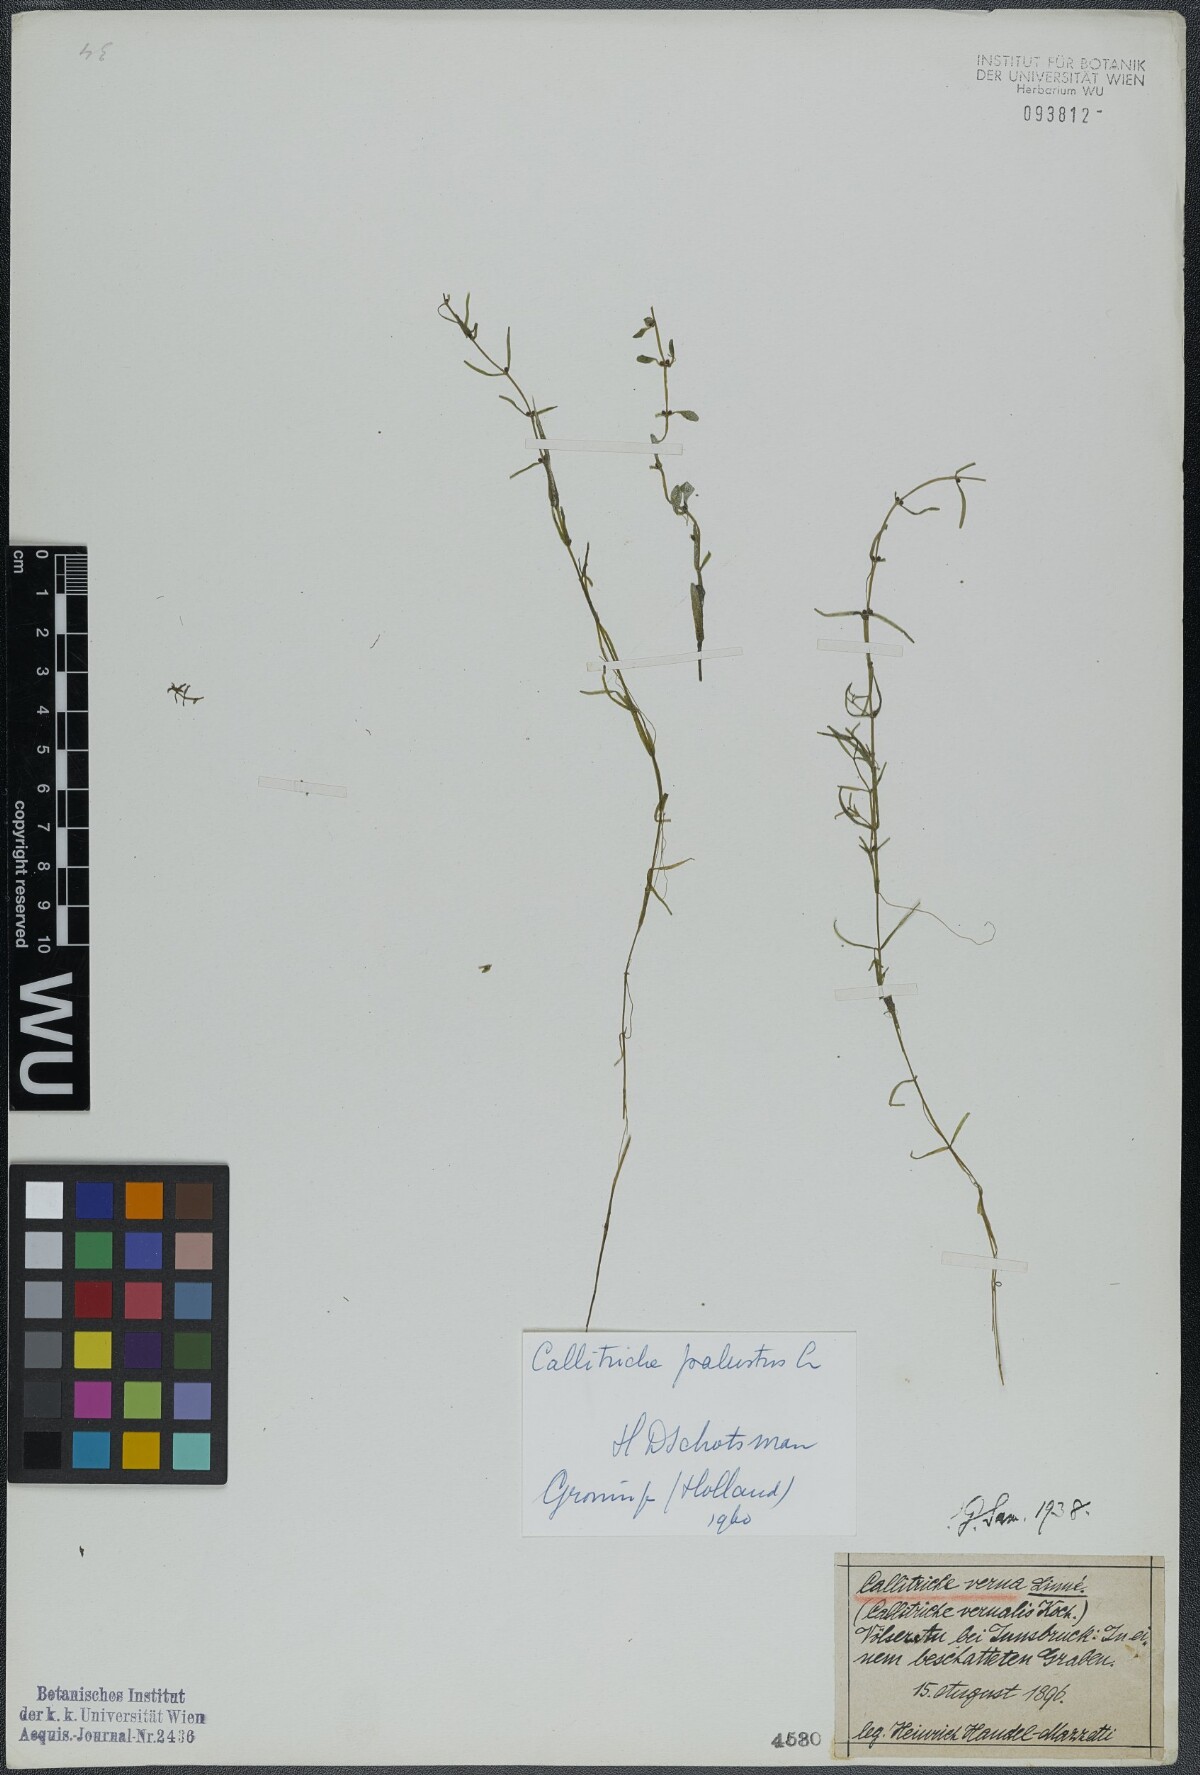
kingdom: Plantae
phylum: Tracheophyta
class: Magnoliopsida
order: Lamiales
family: Plantaginaceae
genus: Callitriche
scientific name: Callitriche palustris
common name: Spring water-starwort
